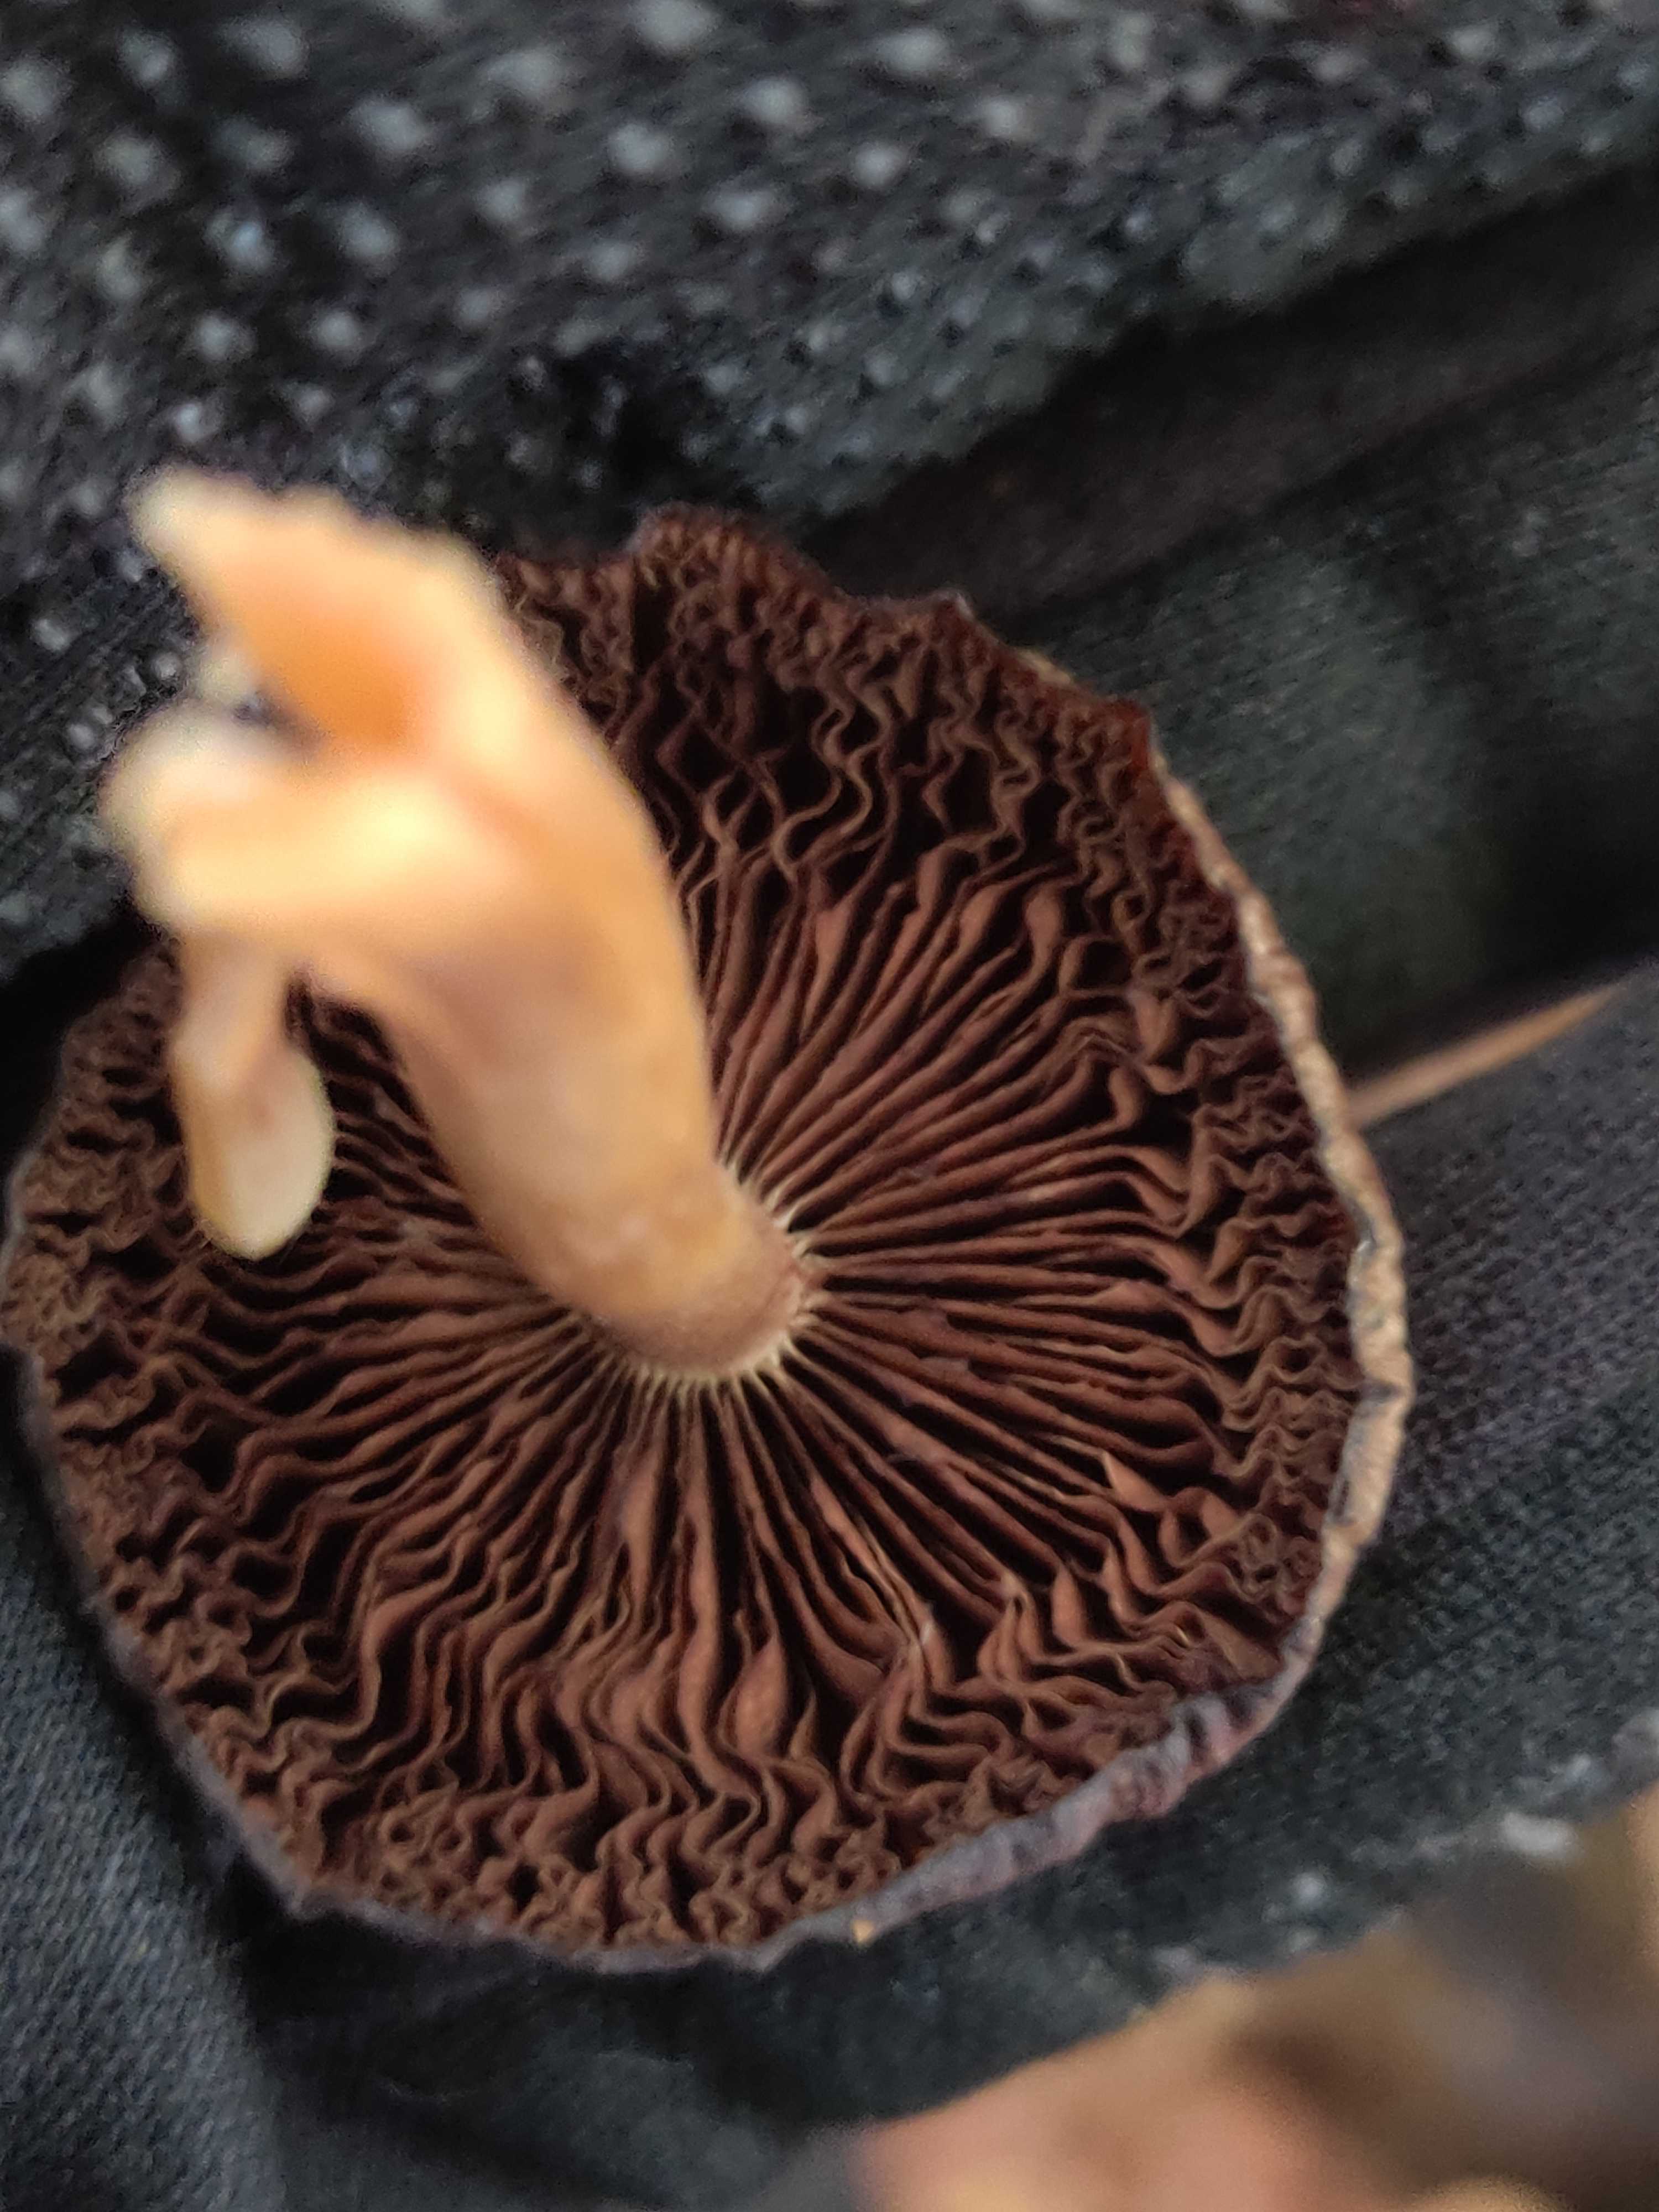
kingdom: Fungi
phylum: Basidiomycota
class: Agaricomycetes
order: Agaricales
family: Psathyrellaceae
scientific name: Psathyrellaceae
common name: mørkhatfamilien
